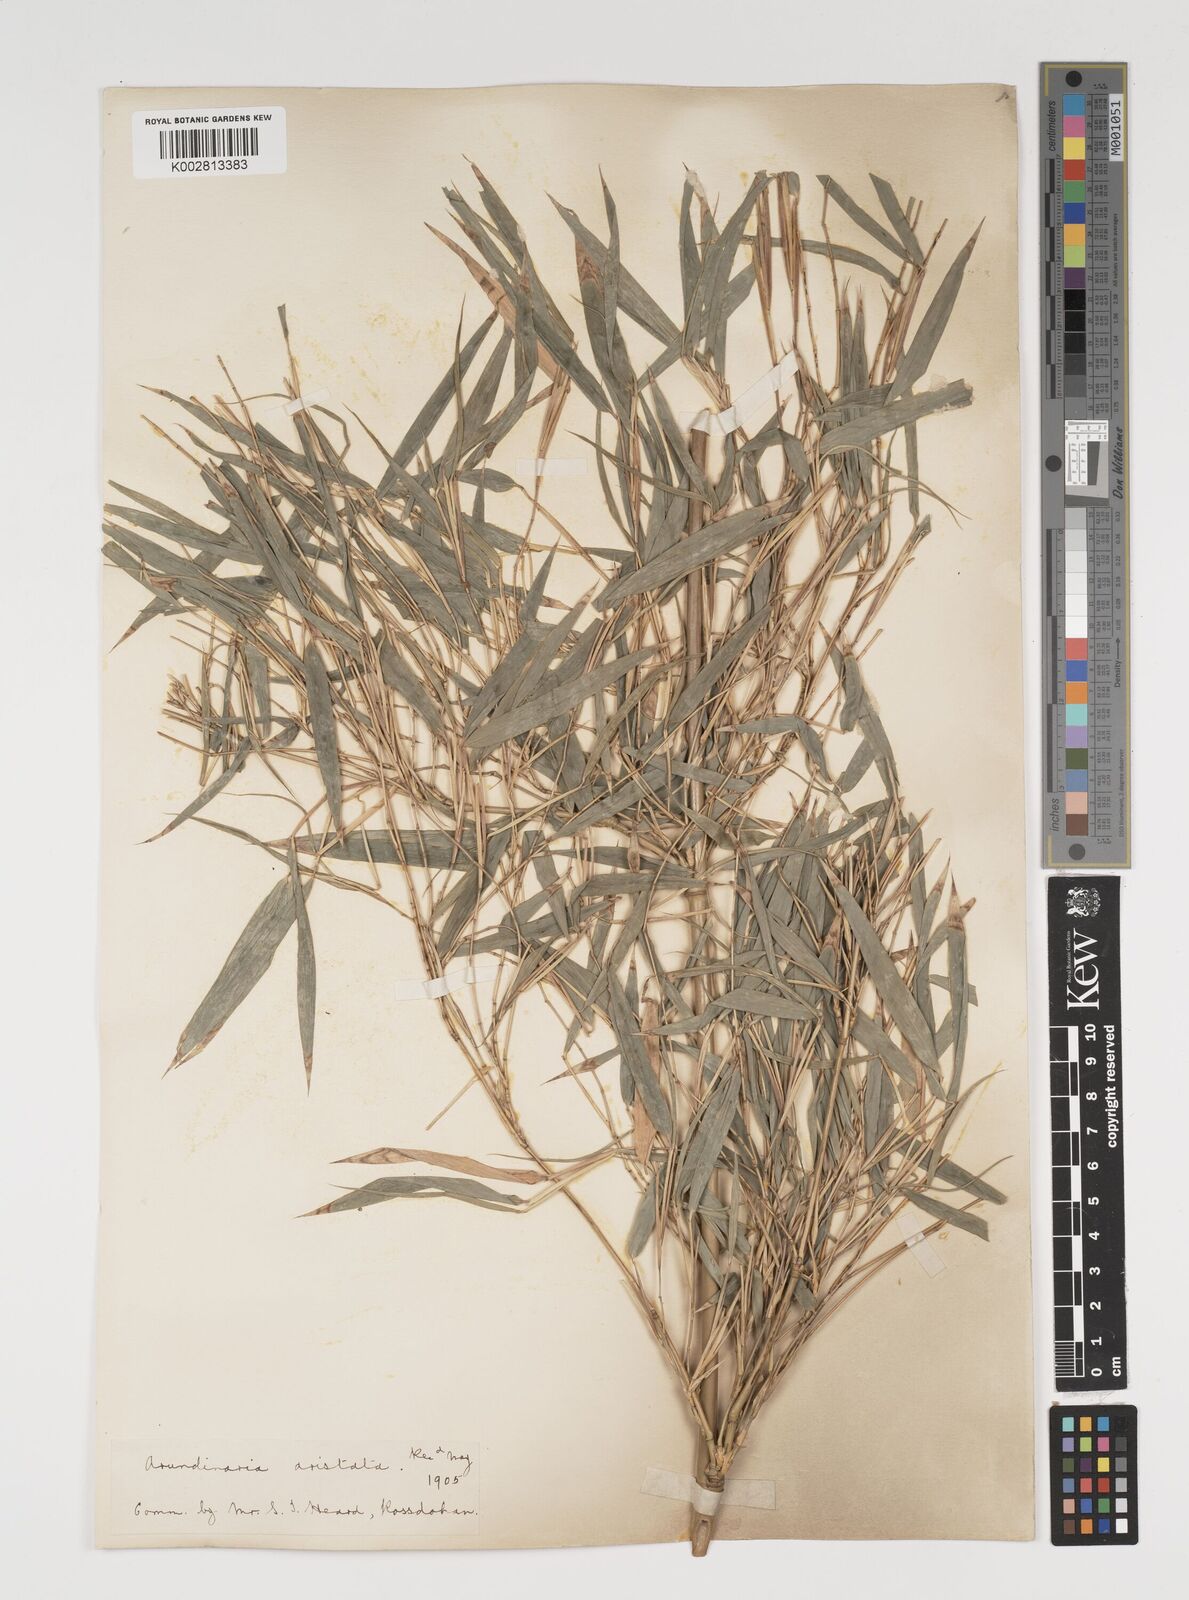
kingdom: Plantae
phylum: Tracheophyta
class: Liliopsida
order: Poales
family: Poaceae
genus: Thamnocalamus
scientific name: Thamnocalamus spathiflorus
